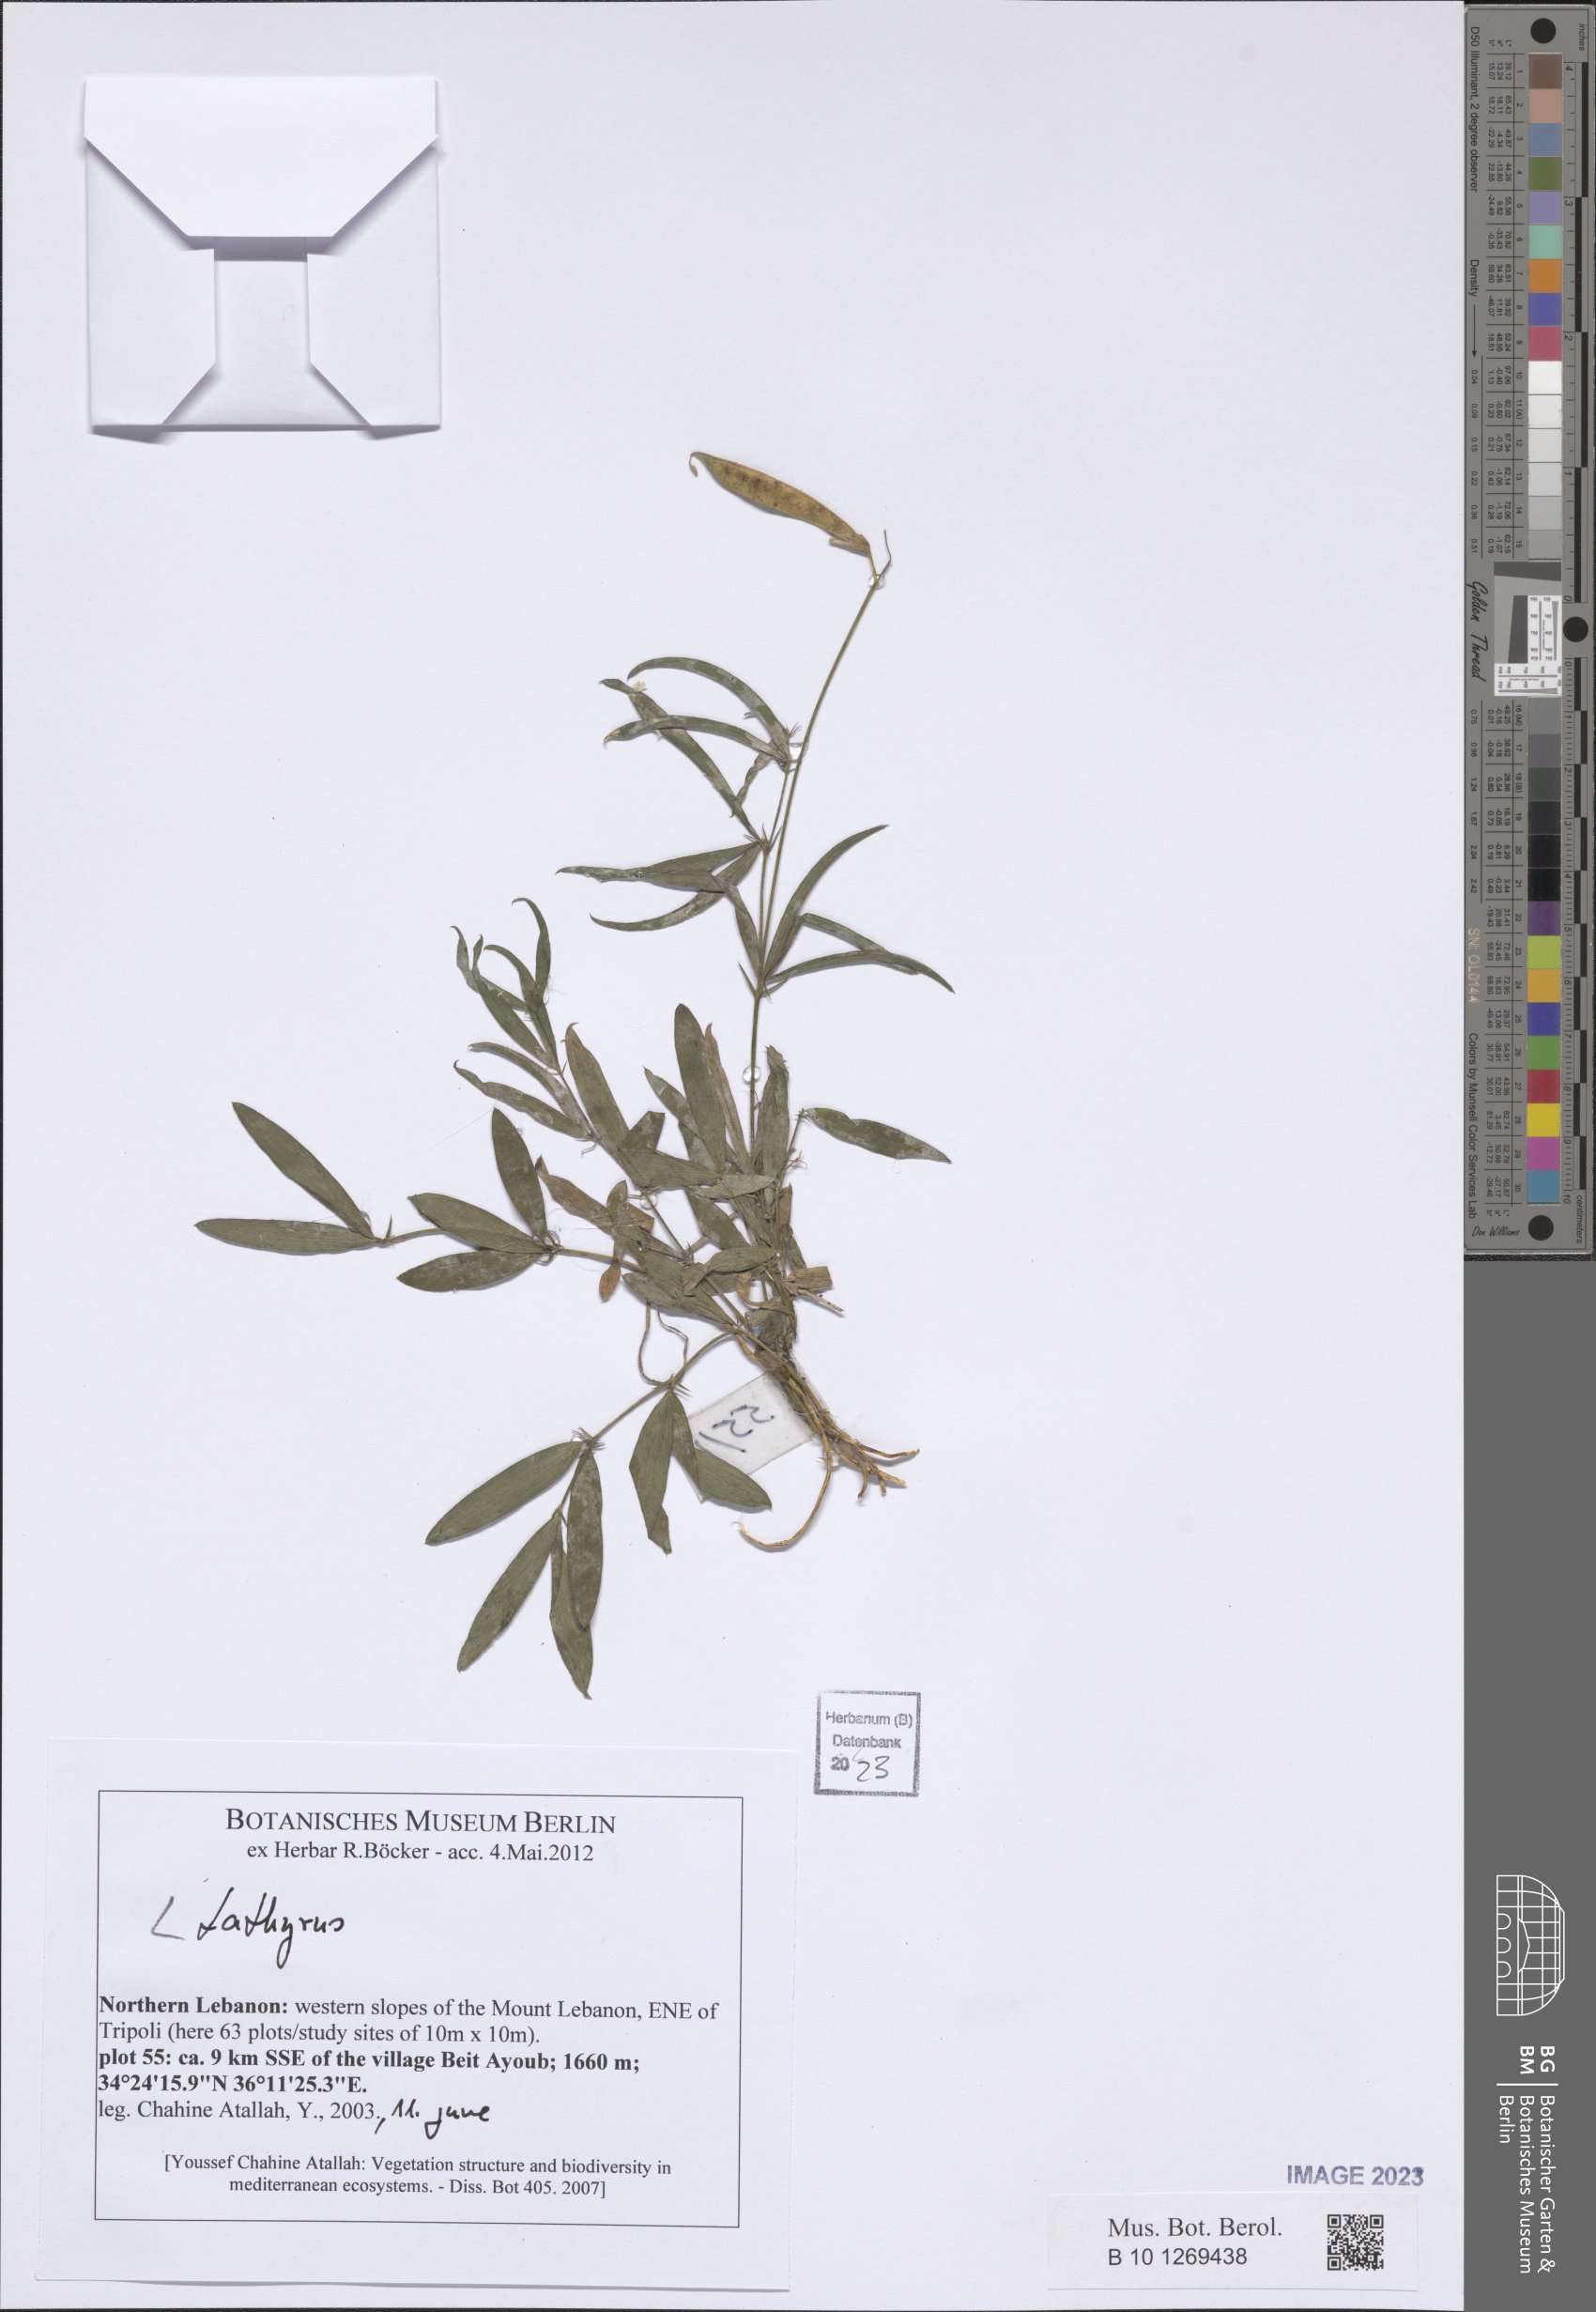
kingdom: Plantae
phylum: Tracheophyta
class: Magnoliopsida
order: Fabales
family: Fabaceae
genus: Lathyrus
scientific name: Lathyrus
